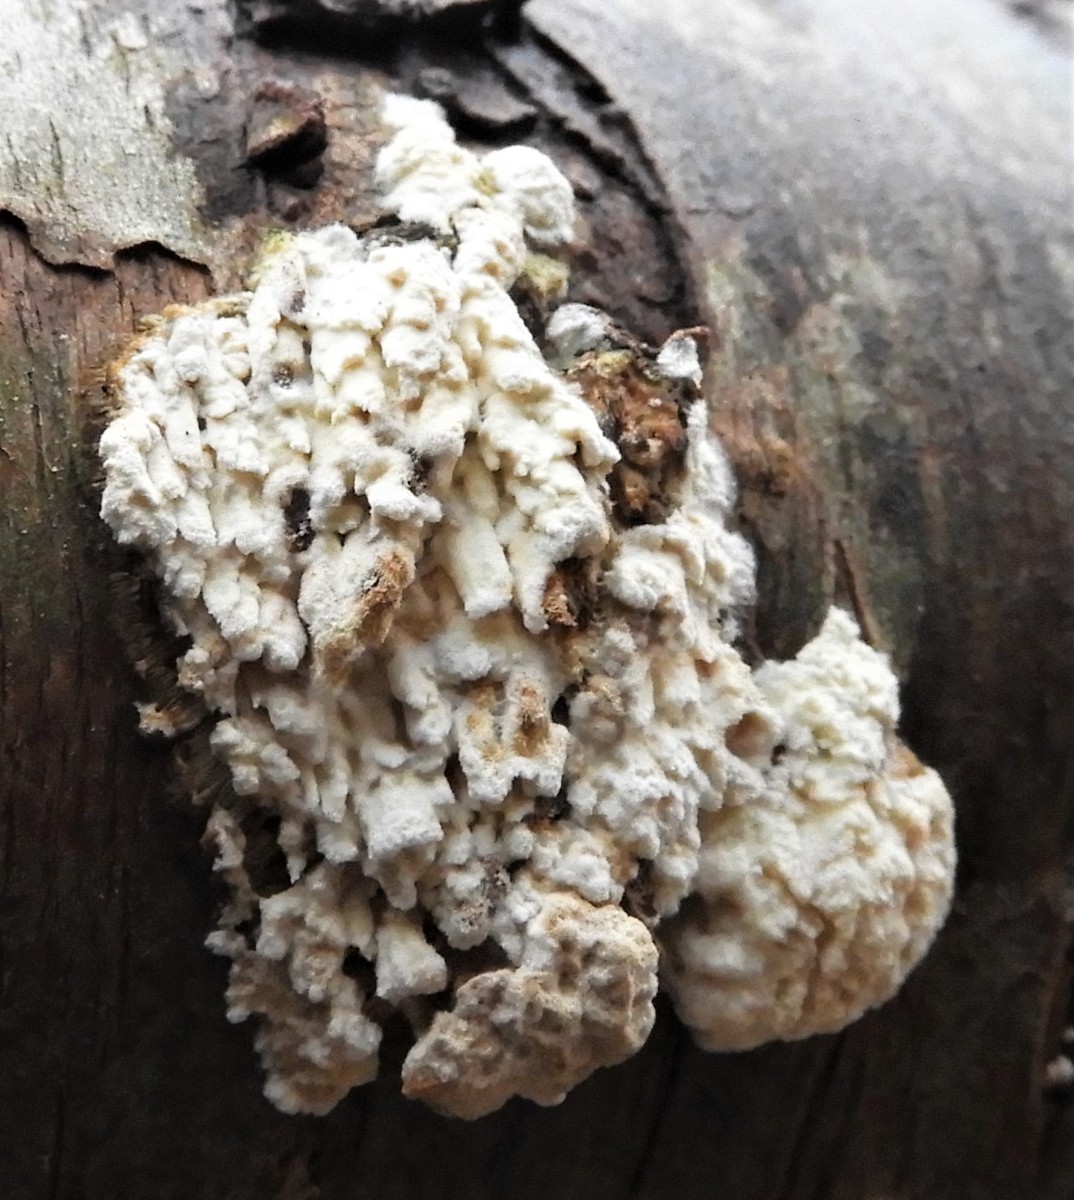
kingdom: Fungi
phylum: Basidiomycota
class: Agaricomycetes
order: Hymenochaetales
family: Schizoporaceae
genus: Xylodon
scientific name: Xylodon radula
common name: grovtandet kalkskind
